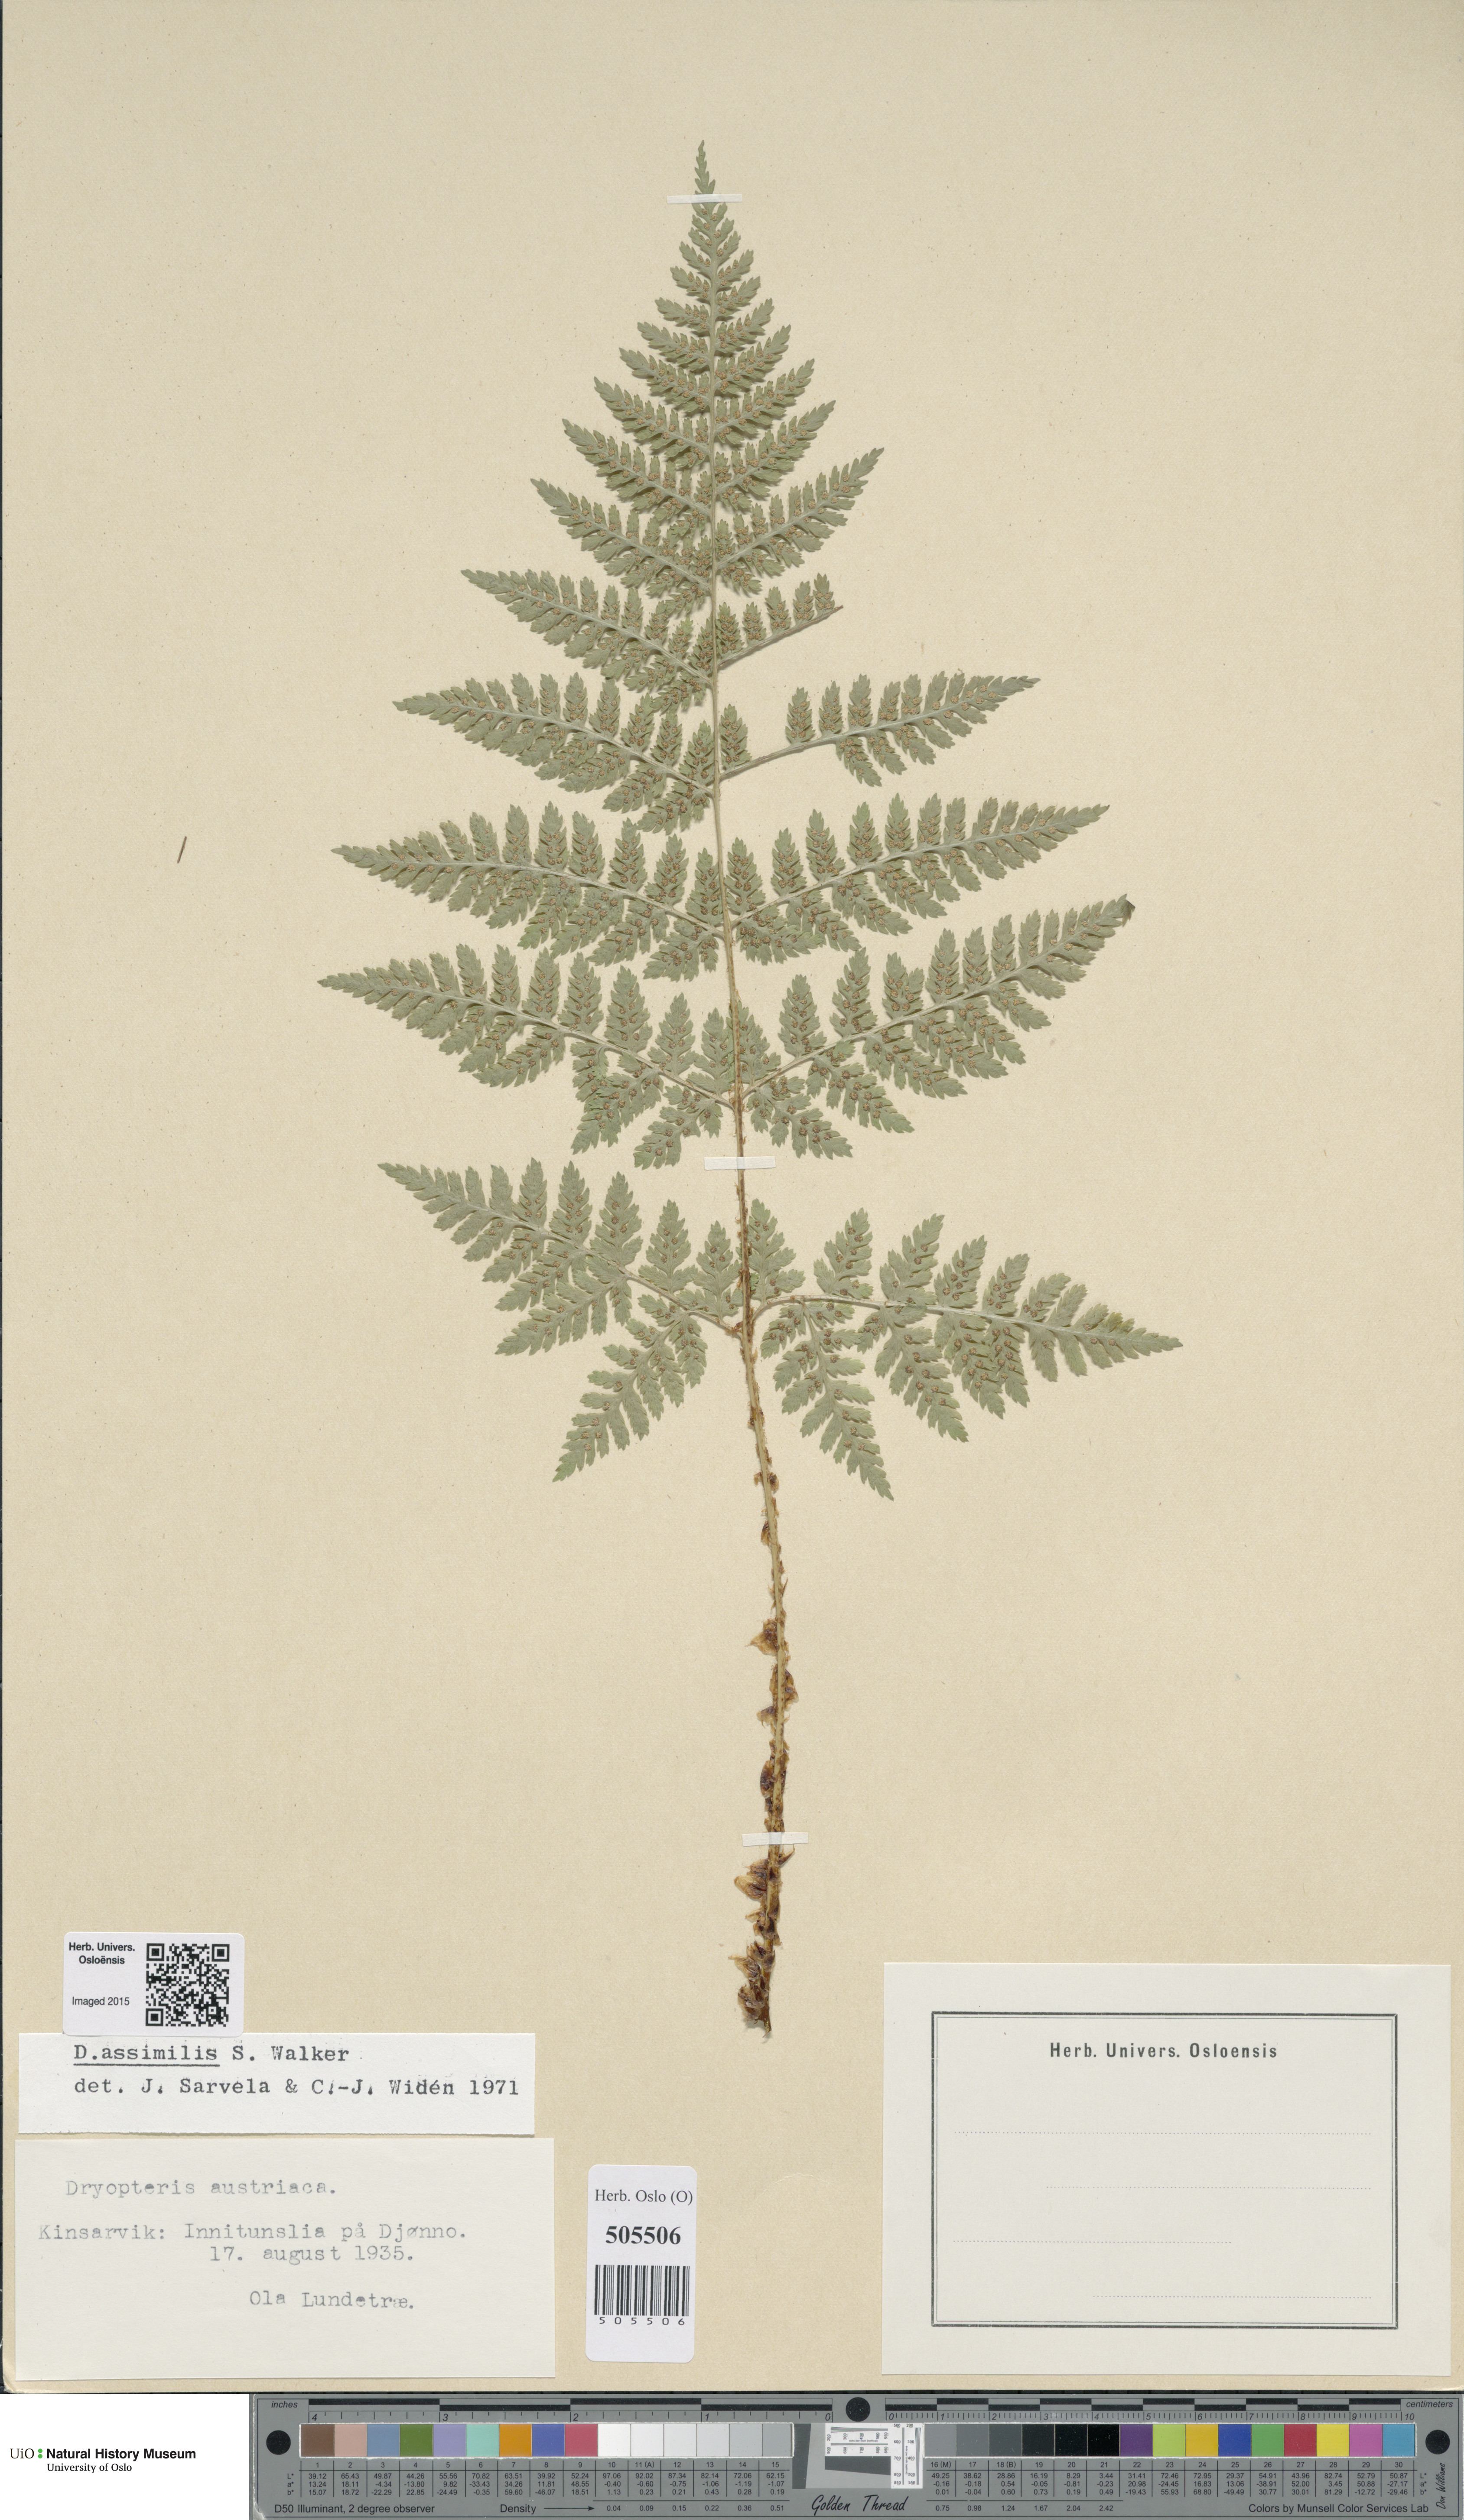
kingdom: Plantae
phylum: Tracheophyta
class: Polypodiopsida
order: Polypodiales
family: Dryopteridaceae
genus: Dryopteris
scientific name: Dryopteris expansa
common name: Northern buckler fern
